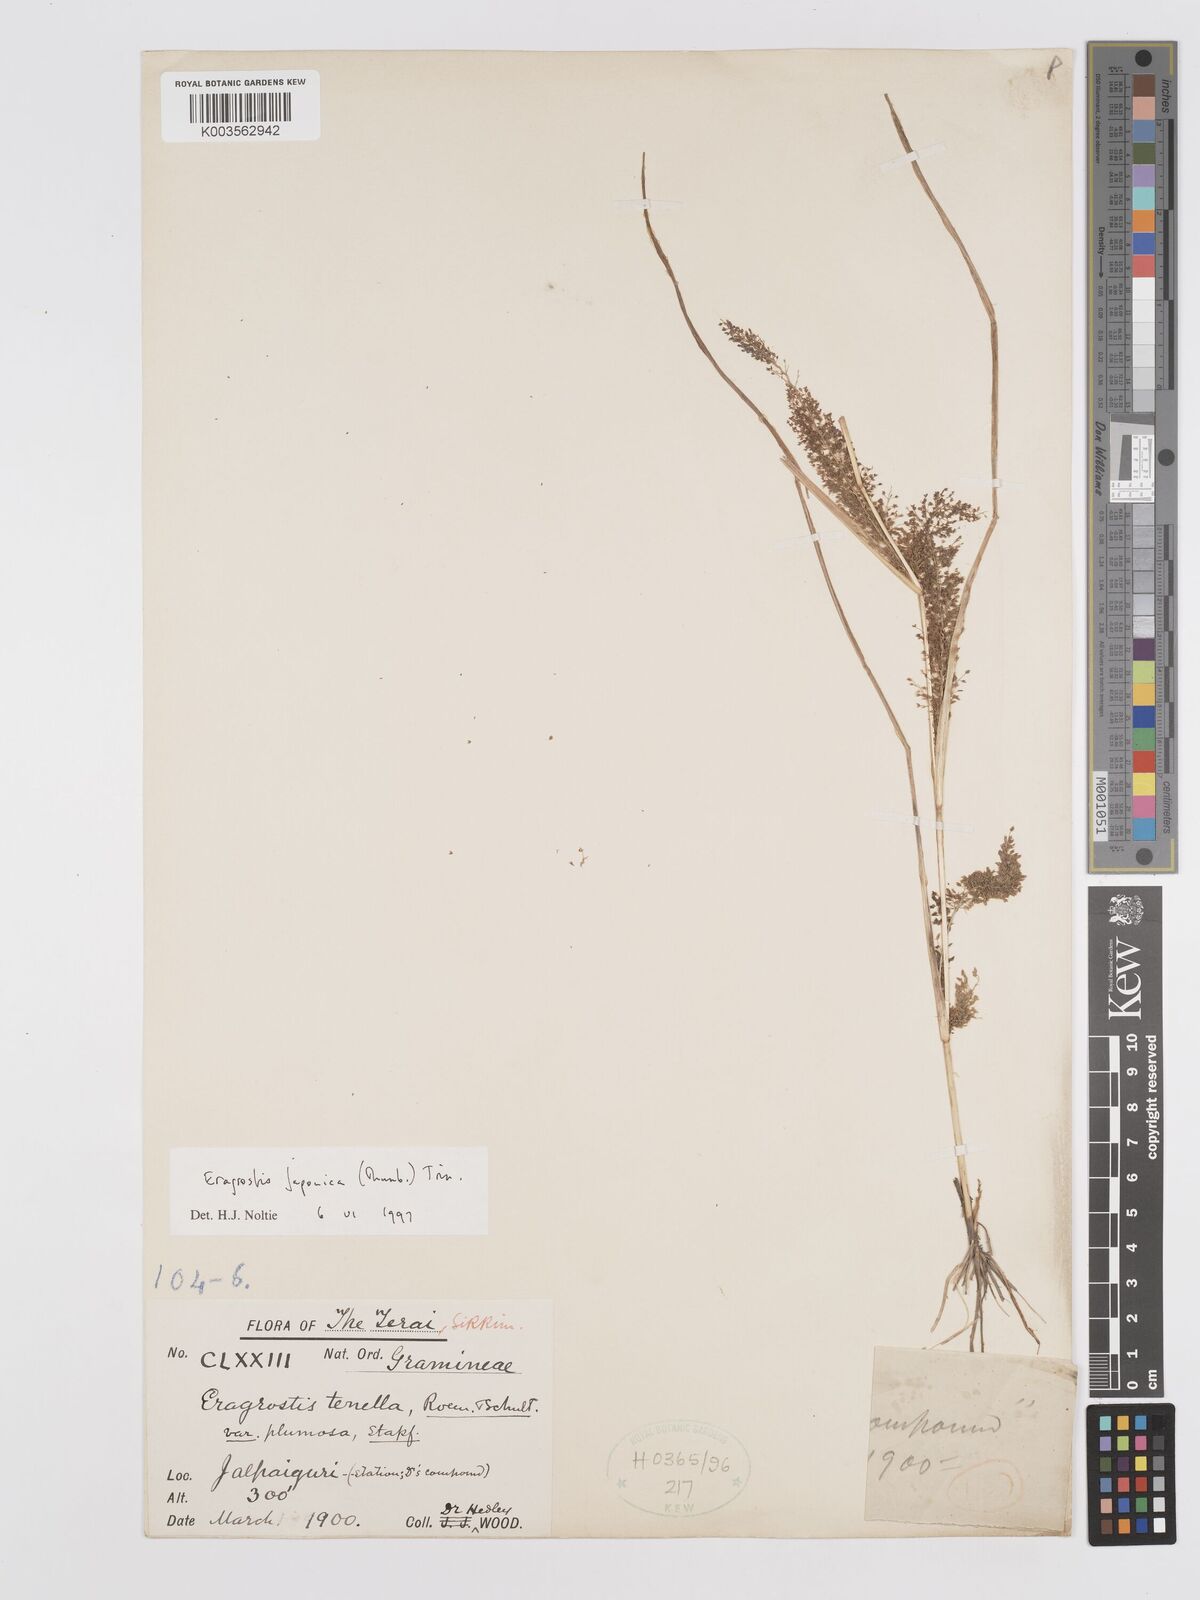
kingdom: Plantae
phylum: Tracheophyta
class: Liliopsida
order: Poales
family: Poaceae
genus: Eragrostis
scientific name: Eragrostis japonica
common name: Pond lovegrass
